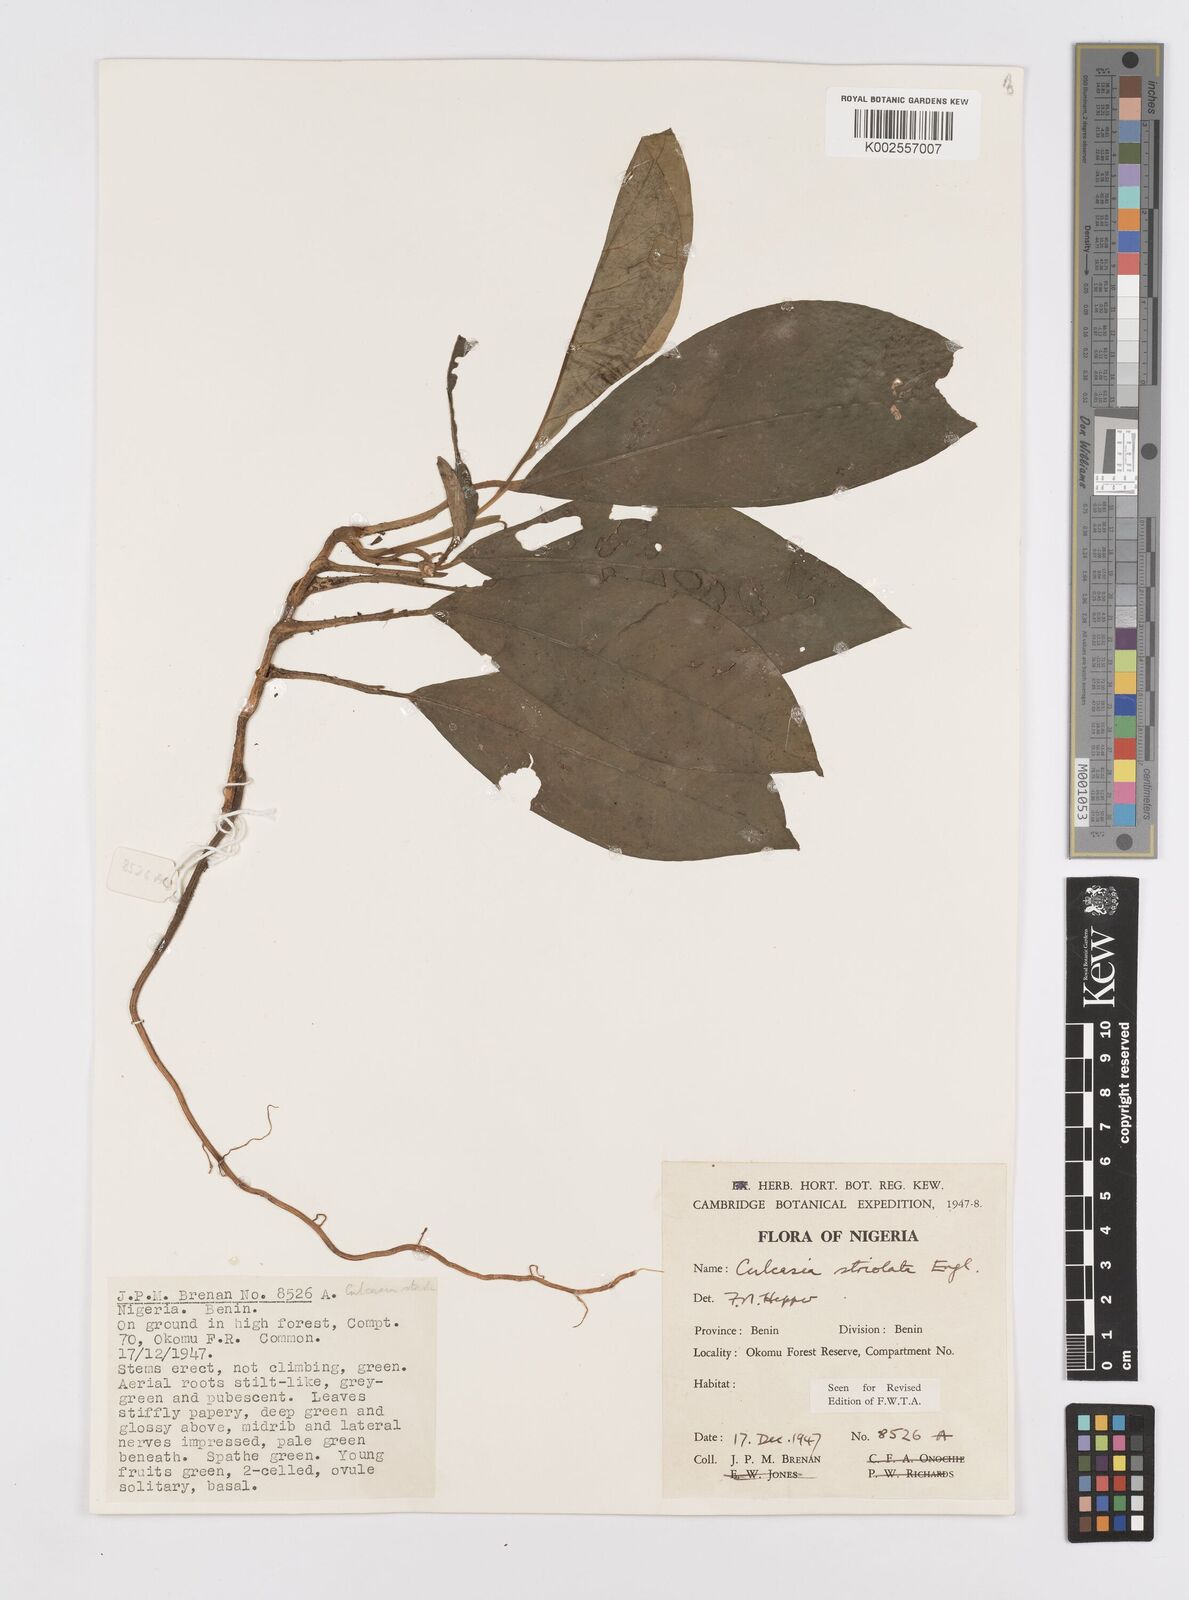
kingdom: Plantae
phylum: Tracheophyta
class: Liliopsida
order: Alismatales
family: Araceae
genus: Culcasia
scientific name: Culcasia striolata
